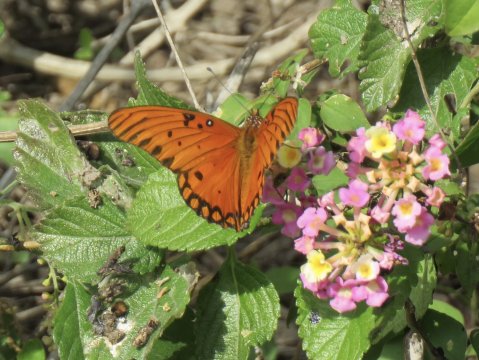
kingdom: Animalia
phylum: Arthropoda
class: Insecta
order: Lepidoptera
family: Nymphalidae
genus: Dione
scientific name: Dione vanillae
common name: Gulf Fritillary
